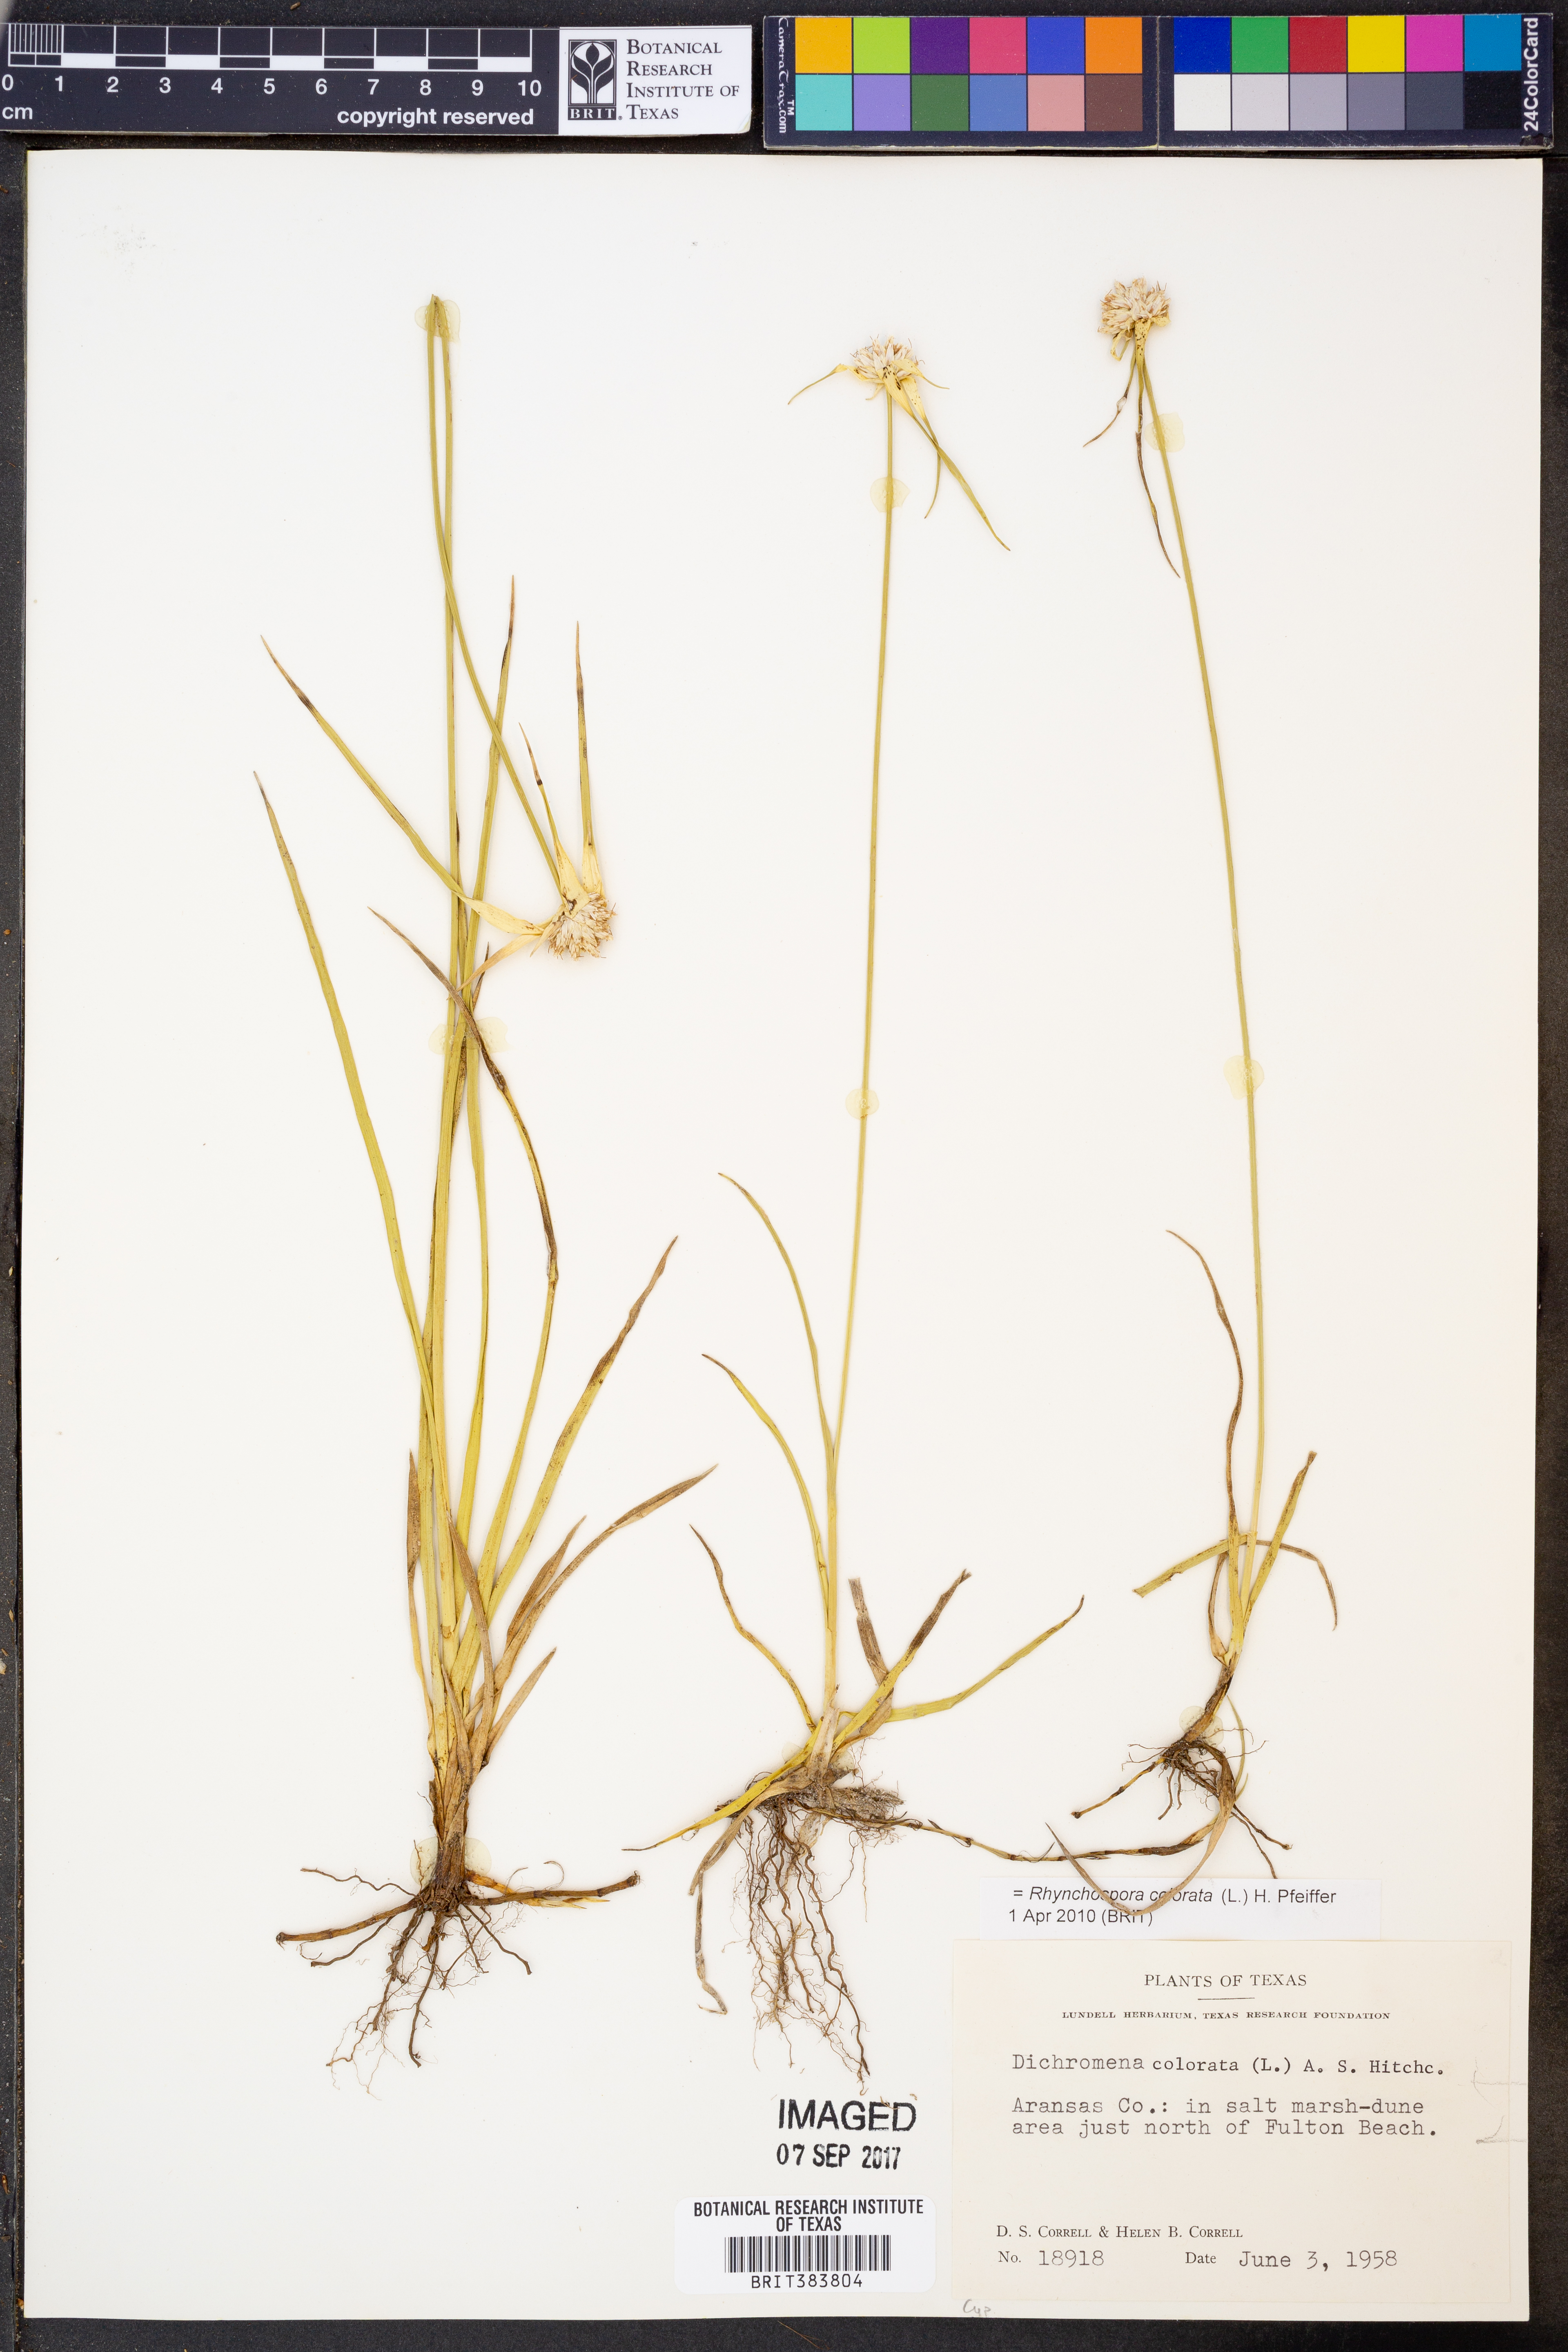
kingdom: Plantae
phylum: Tracheophyta
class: Liliopsida
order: Poales
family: Cyperaceae
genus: Rhynchospora
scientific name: Rhynchospora colorata
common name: Star sedge
